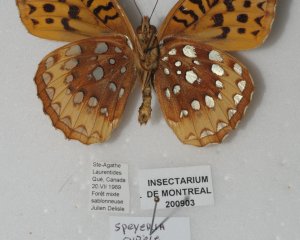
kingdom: Animalia
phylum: Arthropoda
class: Insecta
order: Lepidoptera
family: Nymphalidae
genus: Speyeria
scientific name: Speyeria cybele
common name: Great Spangled Fritillary
